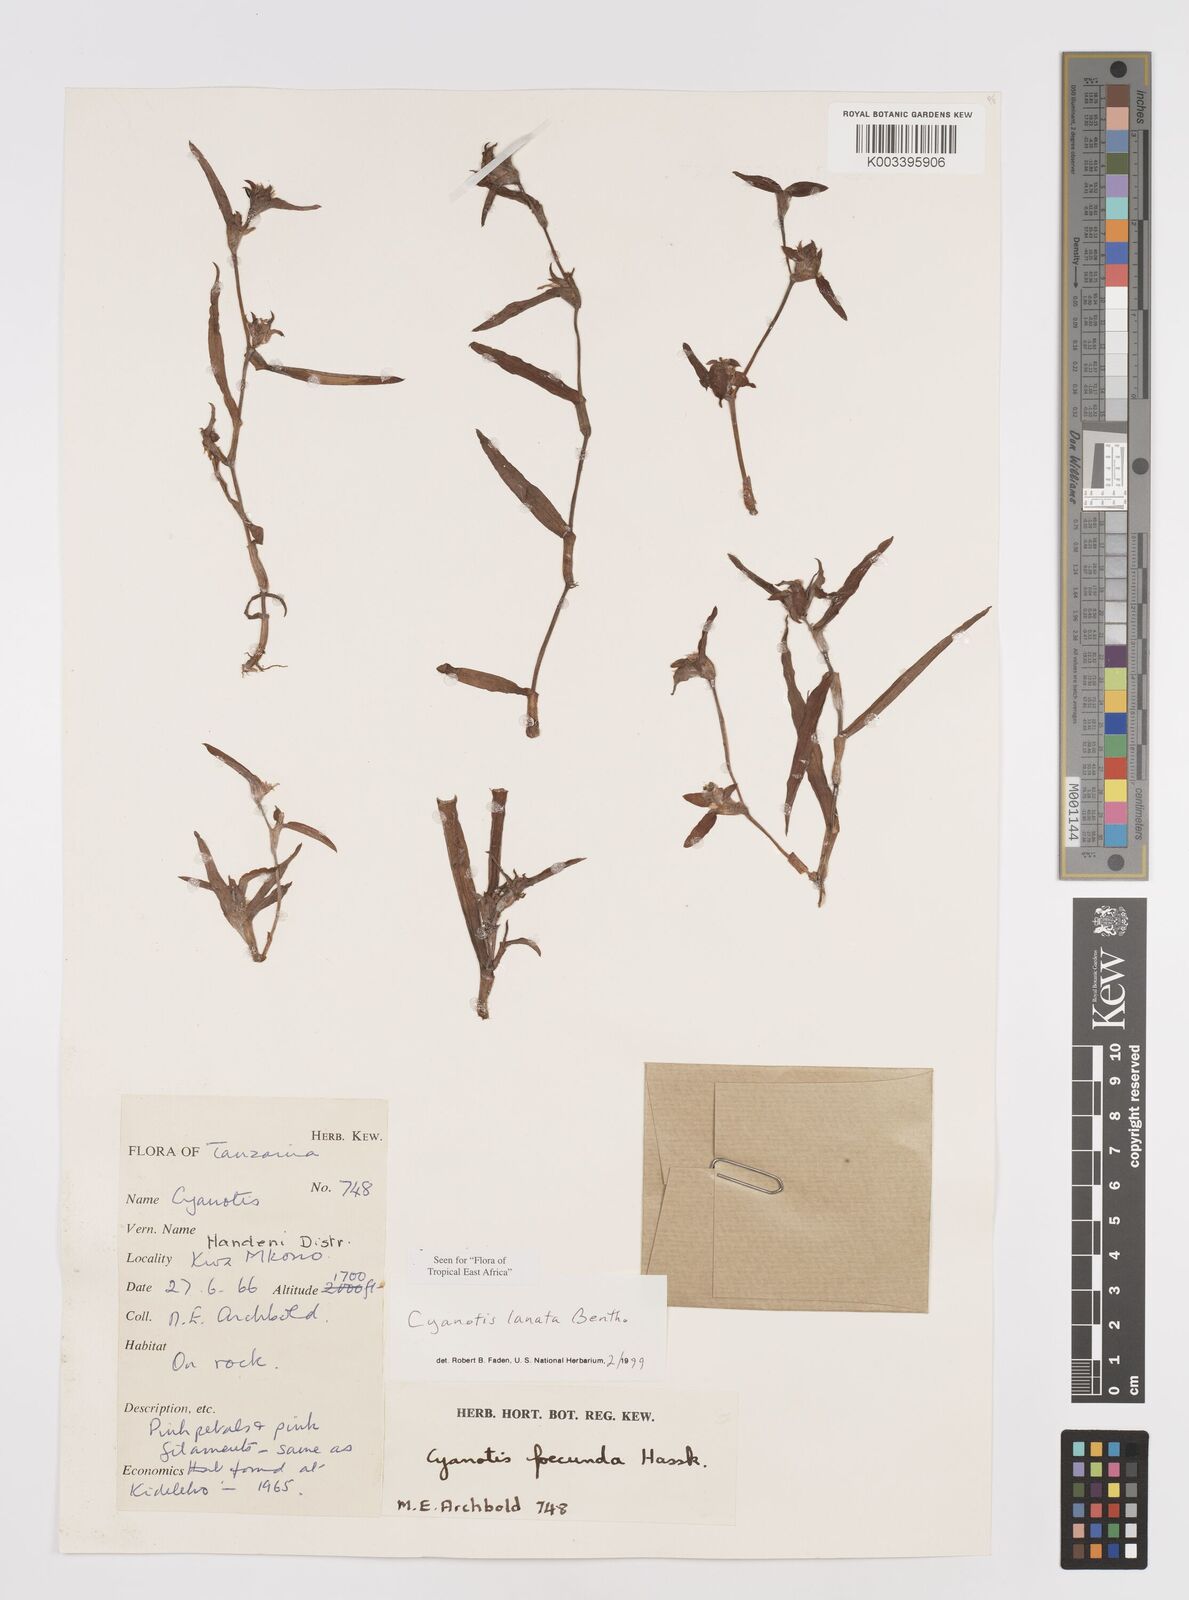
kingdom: Plantae
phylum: Tracheophyta
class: Liliopsida
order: Commelinales
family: Commelinaceae
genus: Cyanotis
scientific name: Cyanotis lanata
